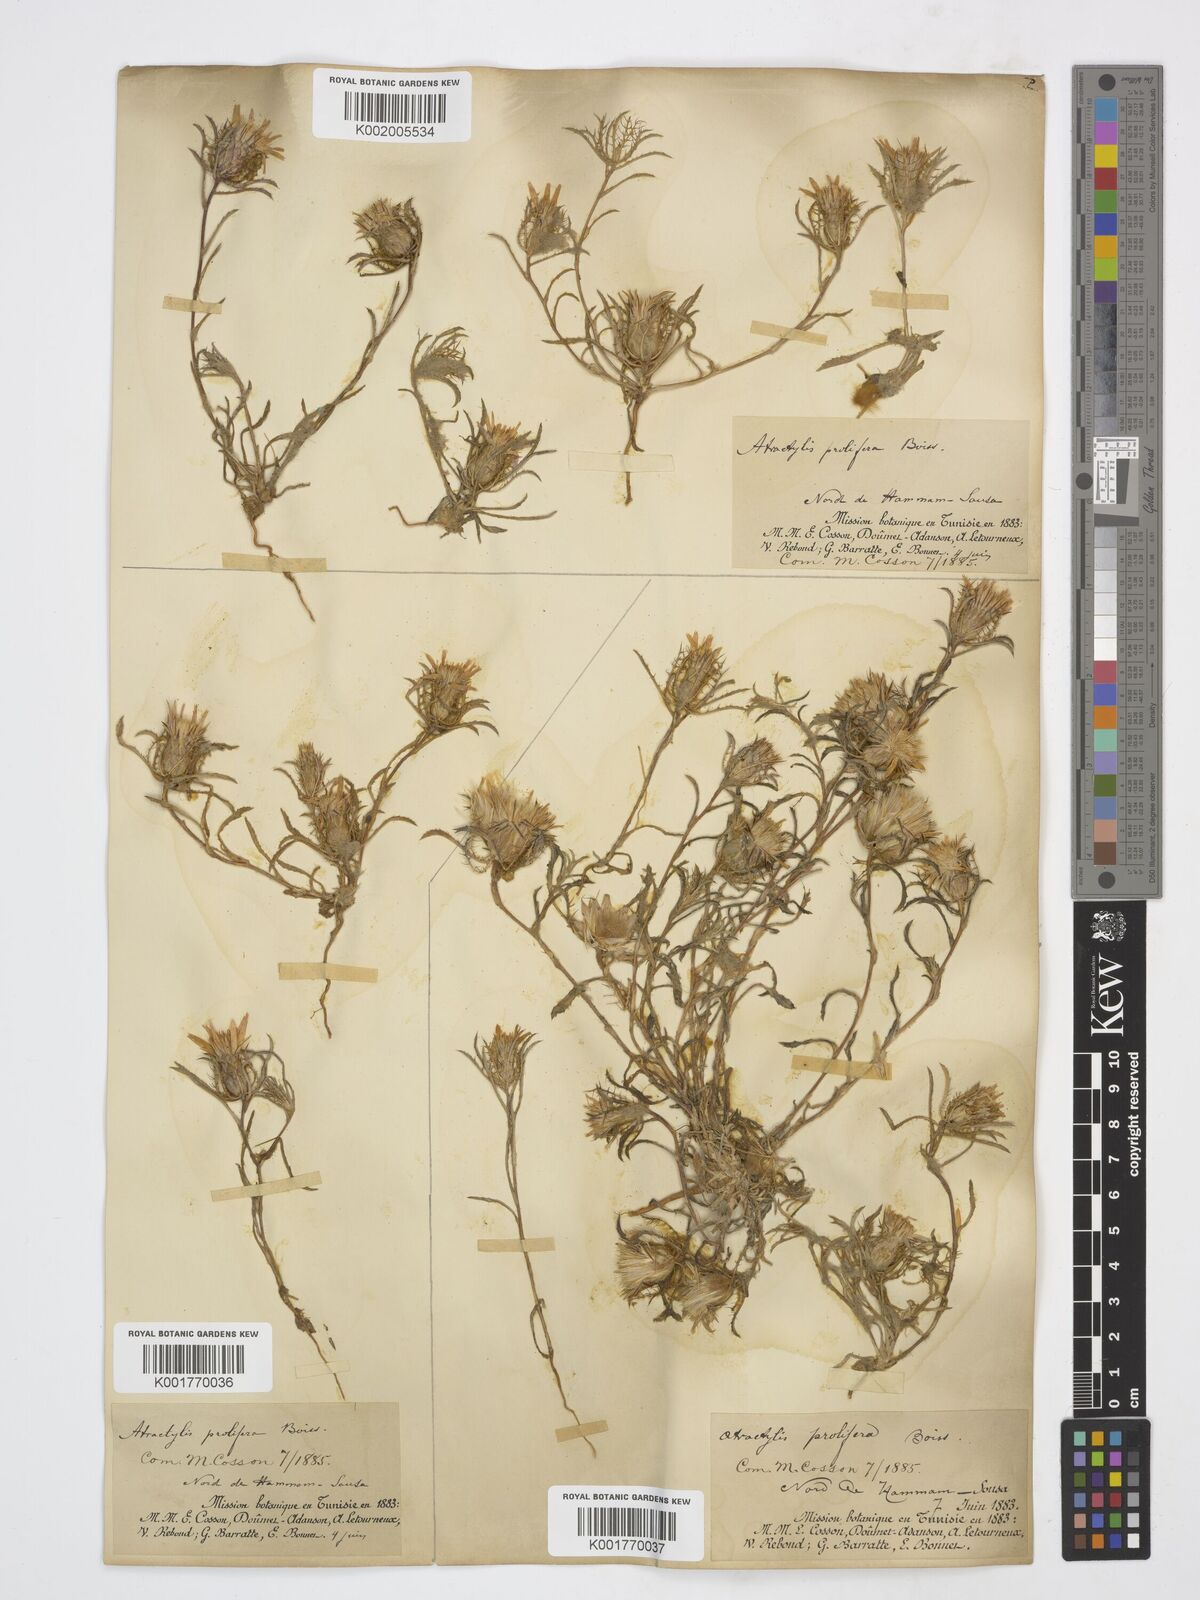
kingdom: Plantae
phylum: Tracheophyta
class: Magnoliopsida
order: Asterales
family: Asteraceae
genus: Atractylis
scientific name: Atractylis prolifera
